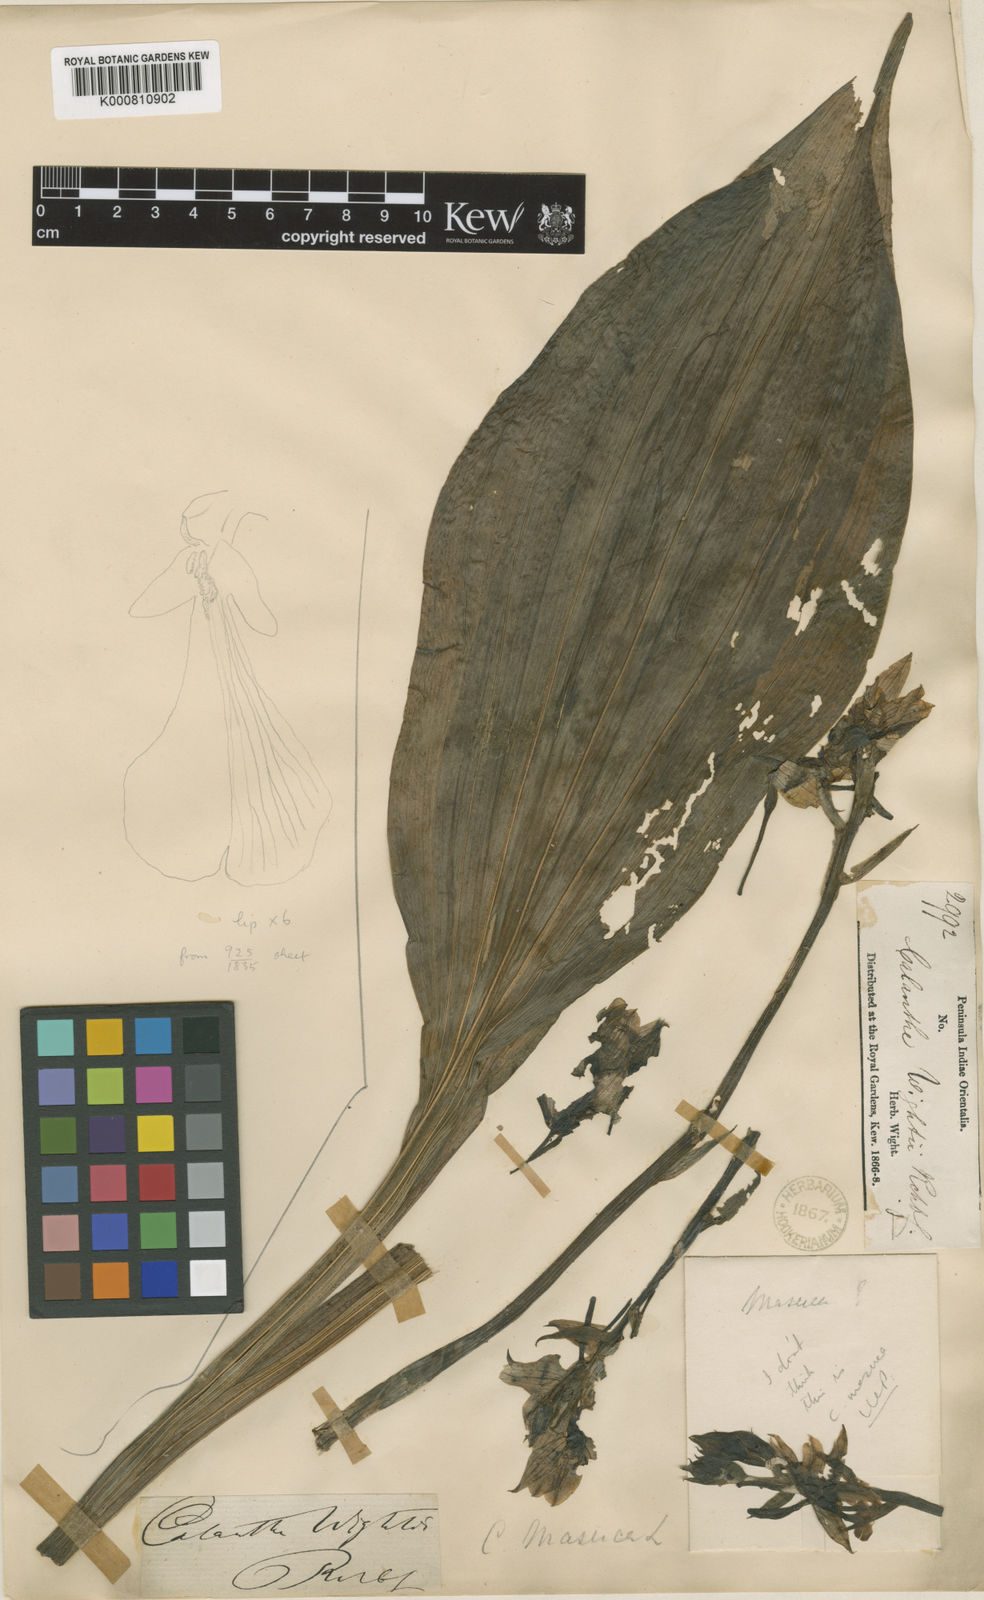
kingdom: Plantae
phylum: Tracheophyta
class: Liliopsida
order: Asparagales
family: Orchidaceae
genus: Calanthe
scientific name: Calanthe masuca
